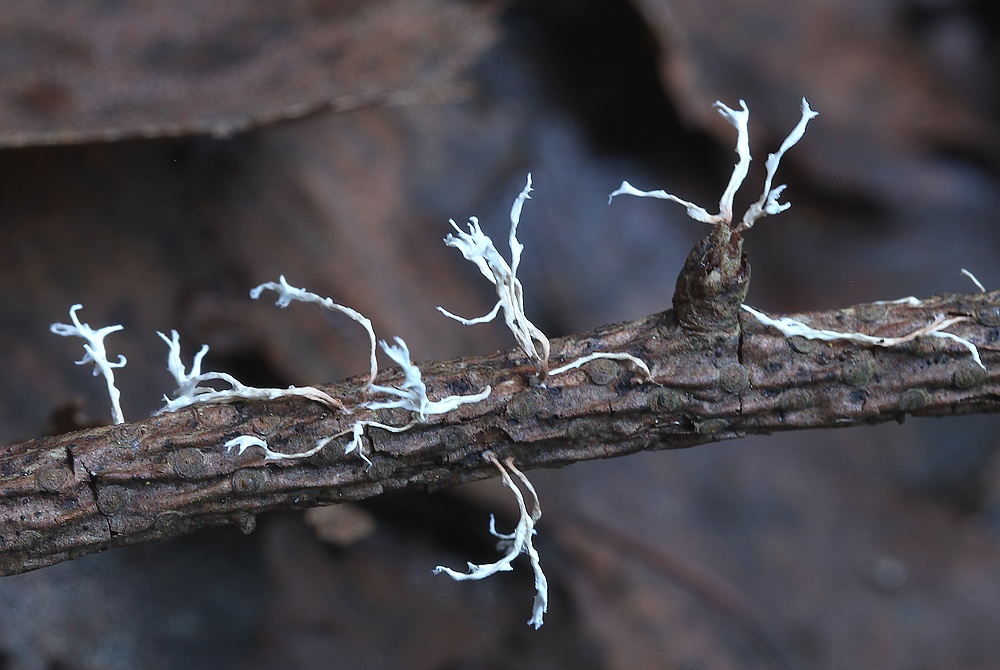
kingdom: Fungi
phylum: Ascomycota
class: Sordariomycetes
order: Xylariales
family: Xylariaceae
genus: Xylaria
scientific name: Xylaria hypoxylon
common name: grenet stødsvamp
